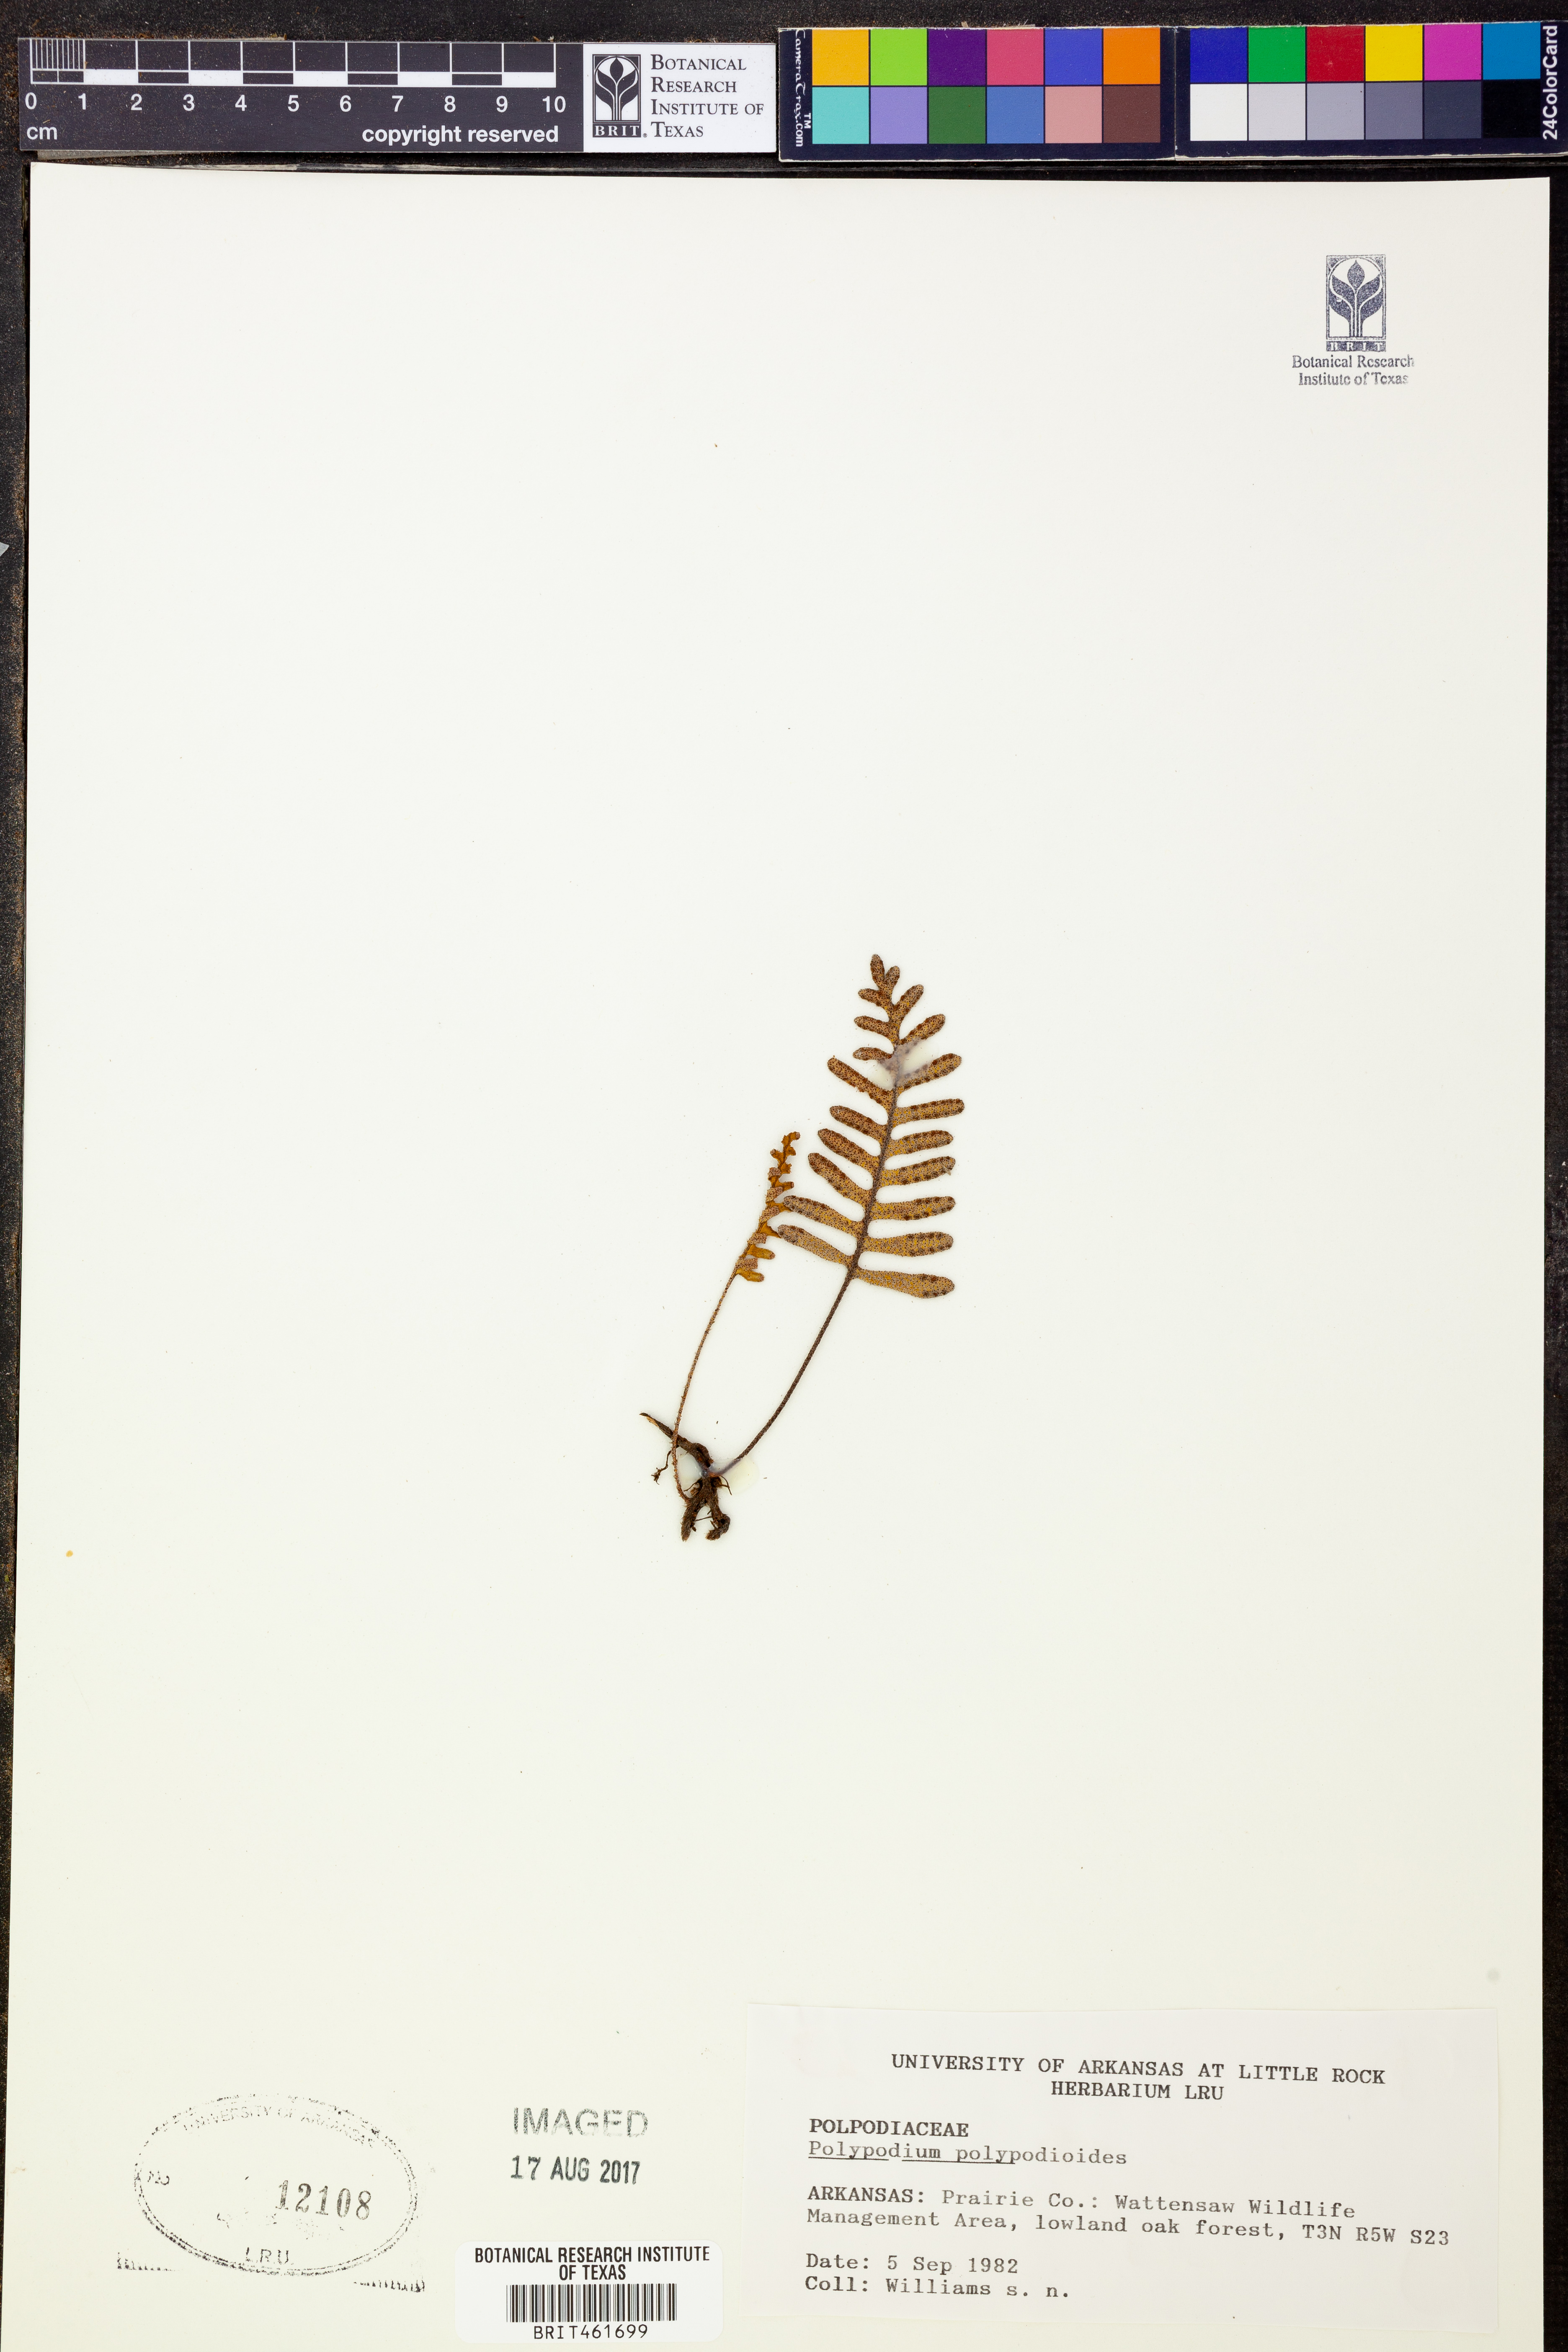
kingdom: Plantae
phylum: Tracheophyta
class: Polypodiopsida
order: Polypodiales
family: Polypodiaceae
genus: Pleopeltis
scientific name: Pleopeltis polypodioides
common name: Resurrection fern
